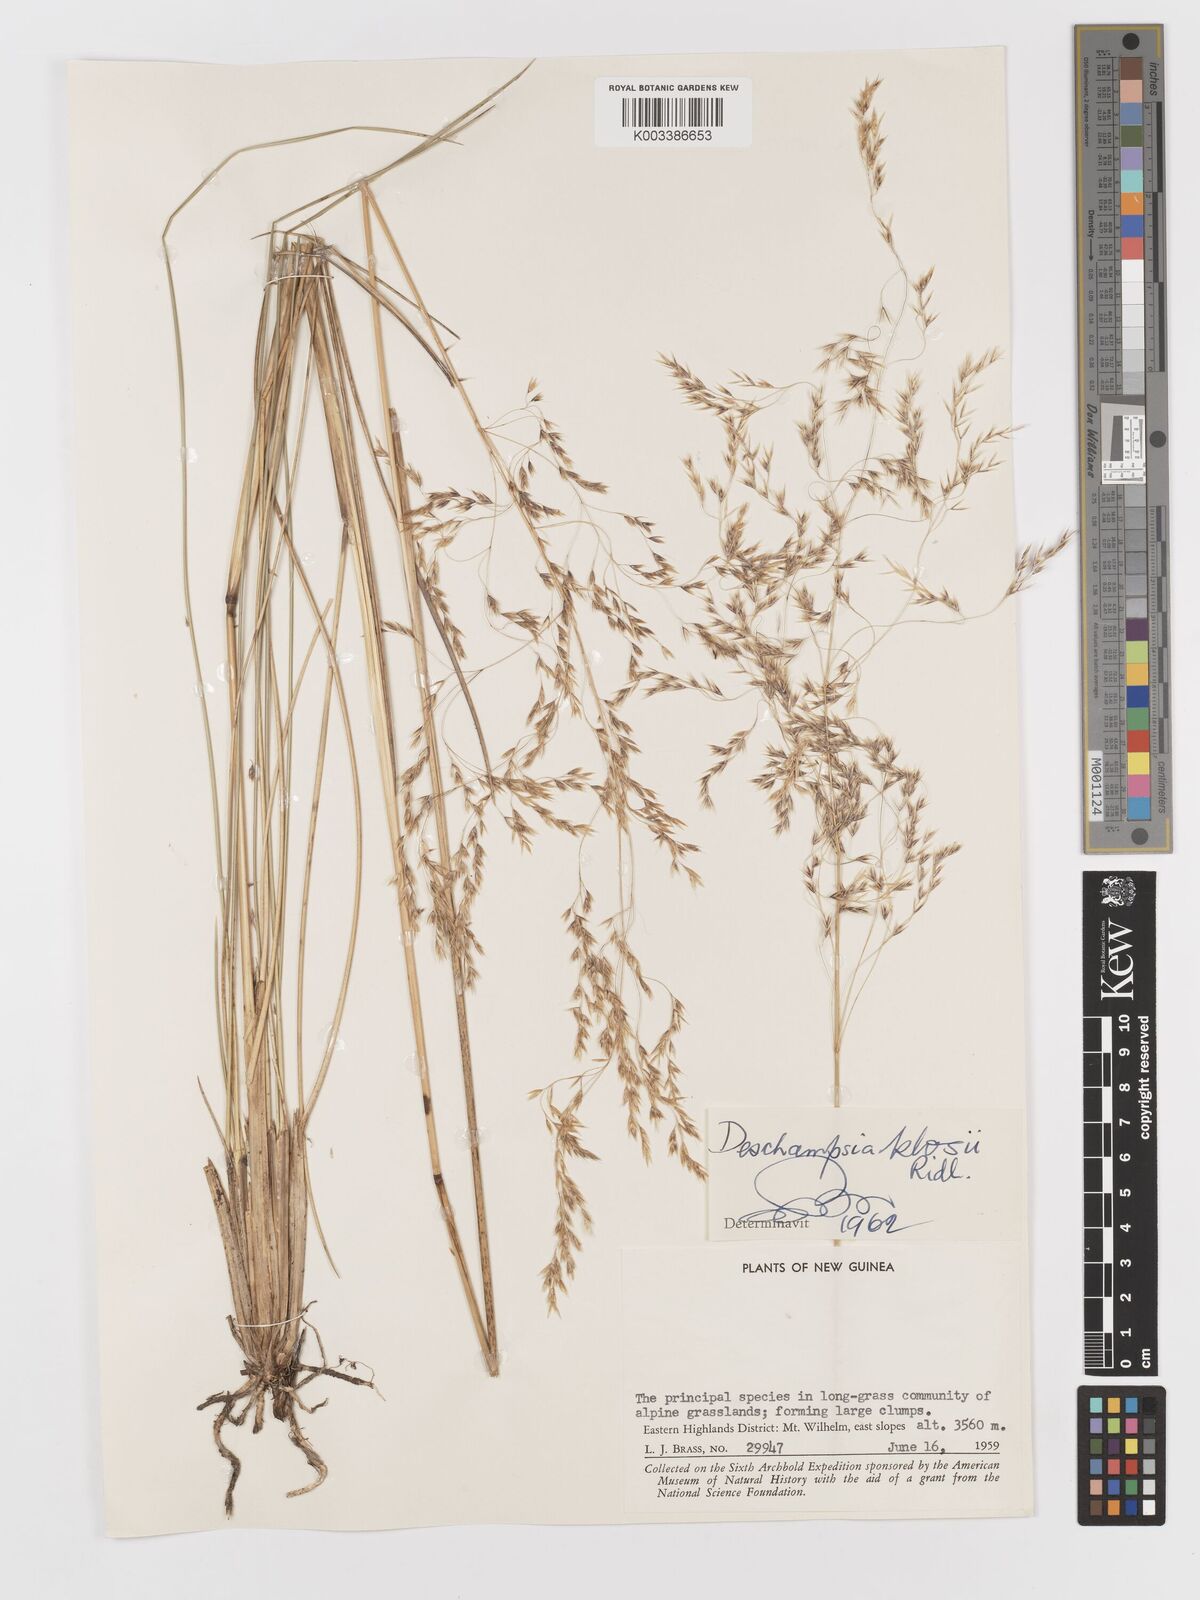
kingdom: Plantae
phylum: Tracheophyta
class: Liliopsida
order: Poales
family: Poaceae
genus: Deschampsia
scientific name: Deschampsia klossii
